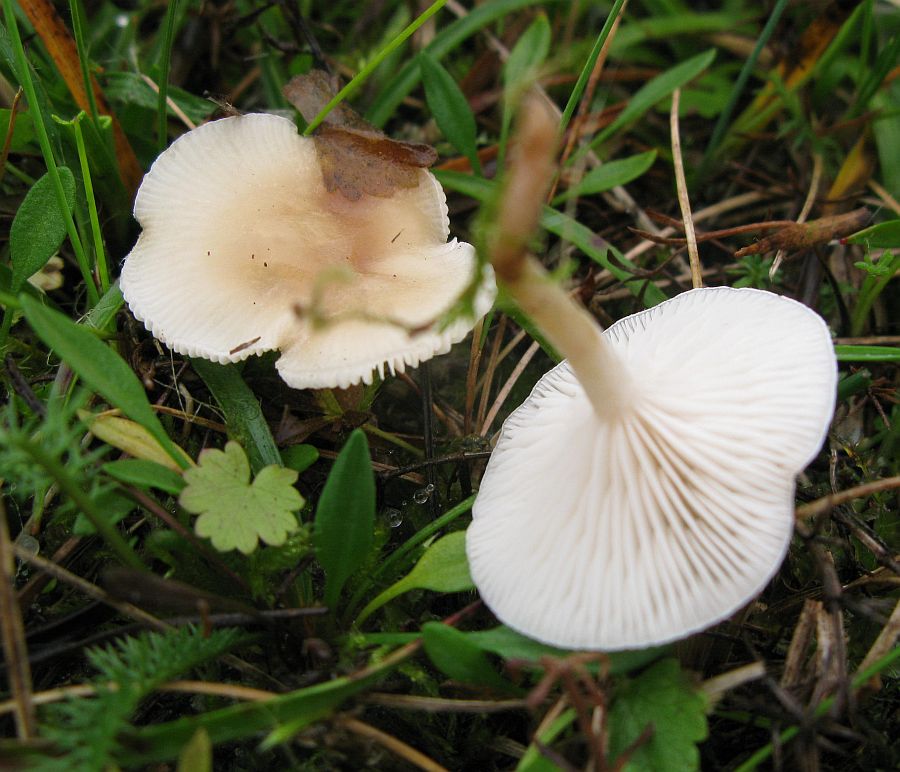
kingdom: Fungi
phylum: Basidiomycota
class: Agaricomycetes
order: Agaricales
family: Tricholomataceae
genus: Clitocybe
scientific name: Clitocybe agrestis
